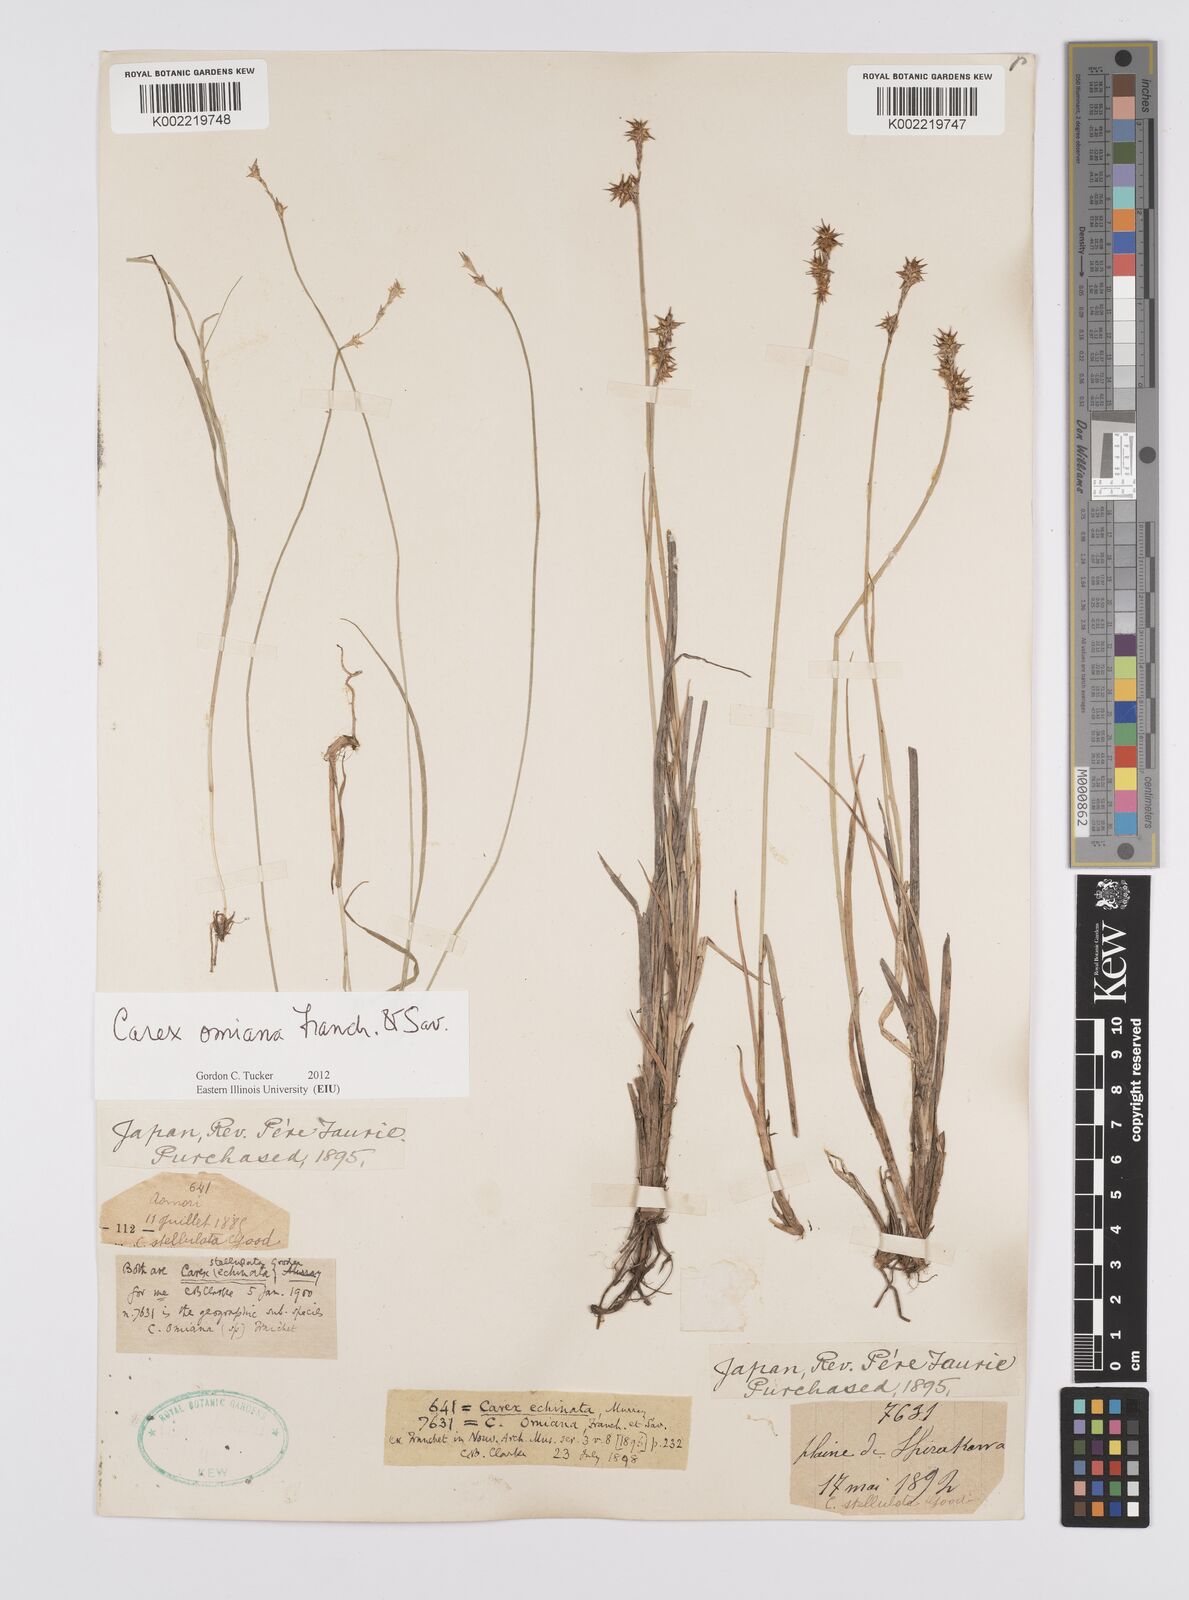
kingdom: Plantae
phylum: Tracheophyta
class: Liliopsida
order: Poales
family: Cyperaceae
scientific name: Cyperaceae
